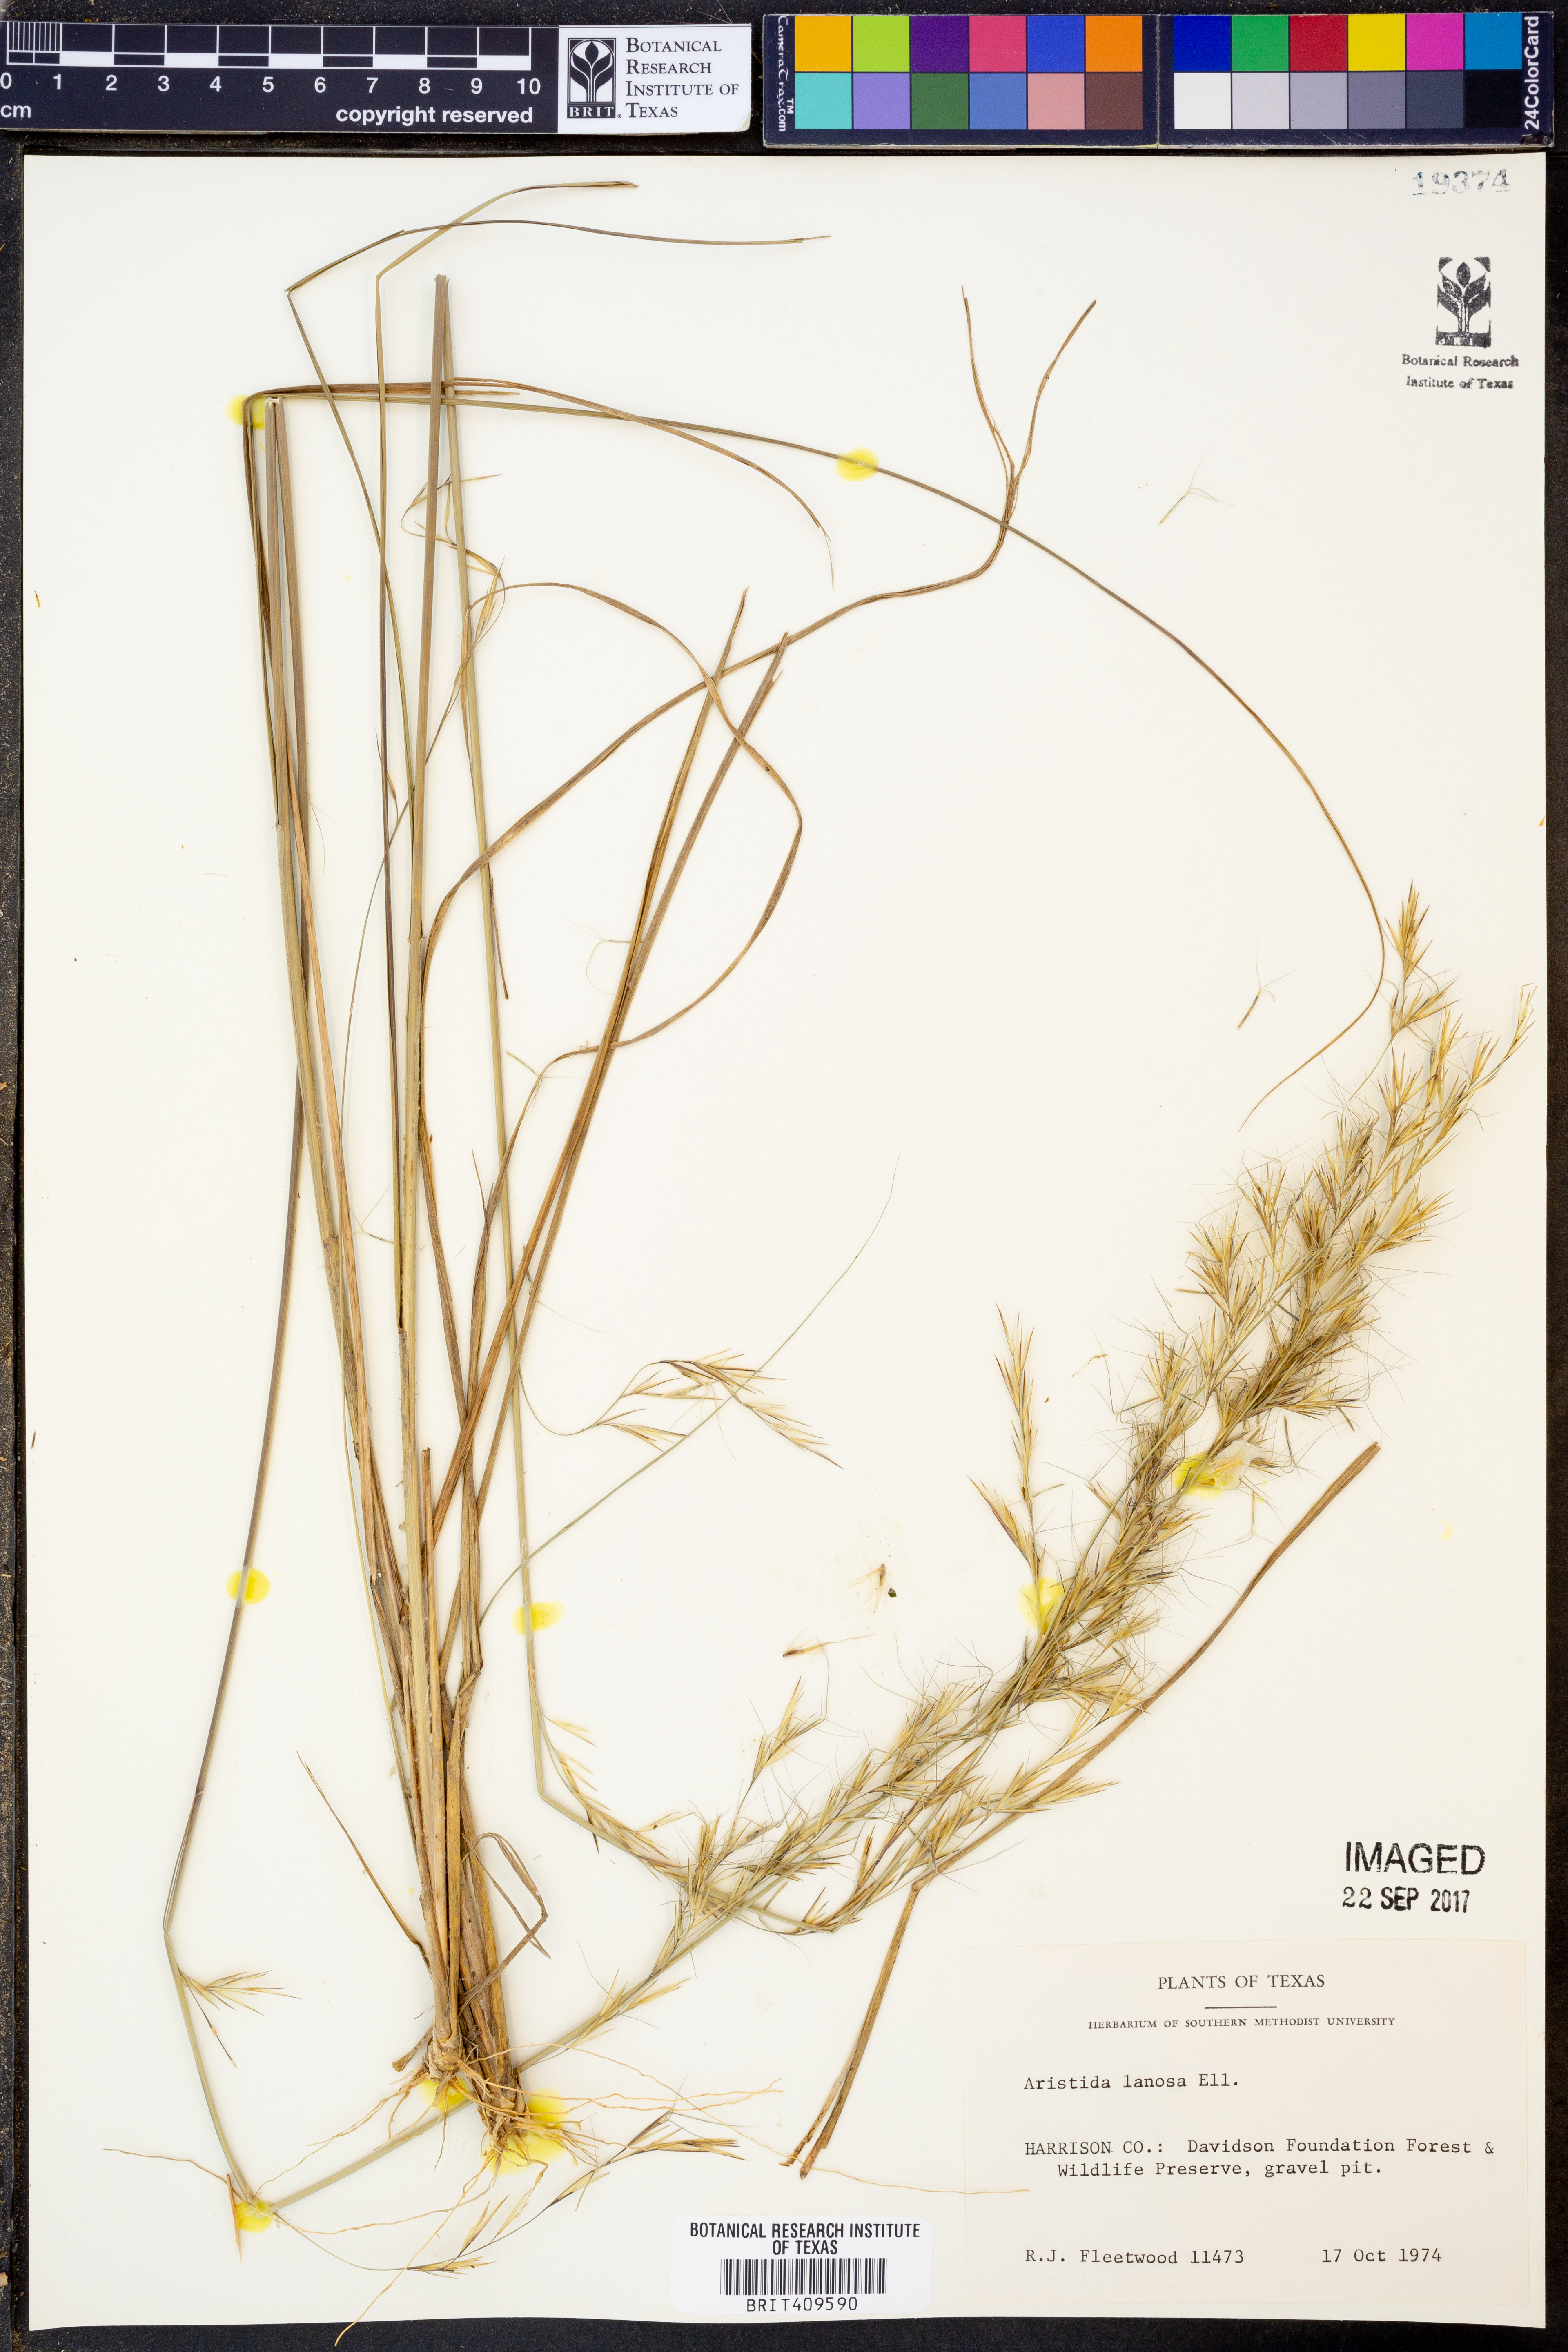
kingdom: Plantae
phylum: Tracheophyta
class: Liliopsida
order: Poales
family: Poaceae
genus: Aristida
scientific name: Aristida lanosa
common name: Woolly three-awn
